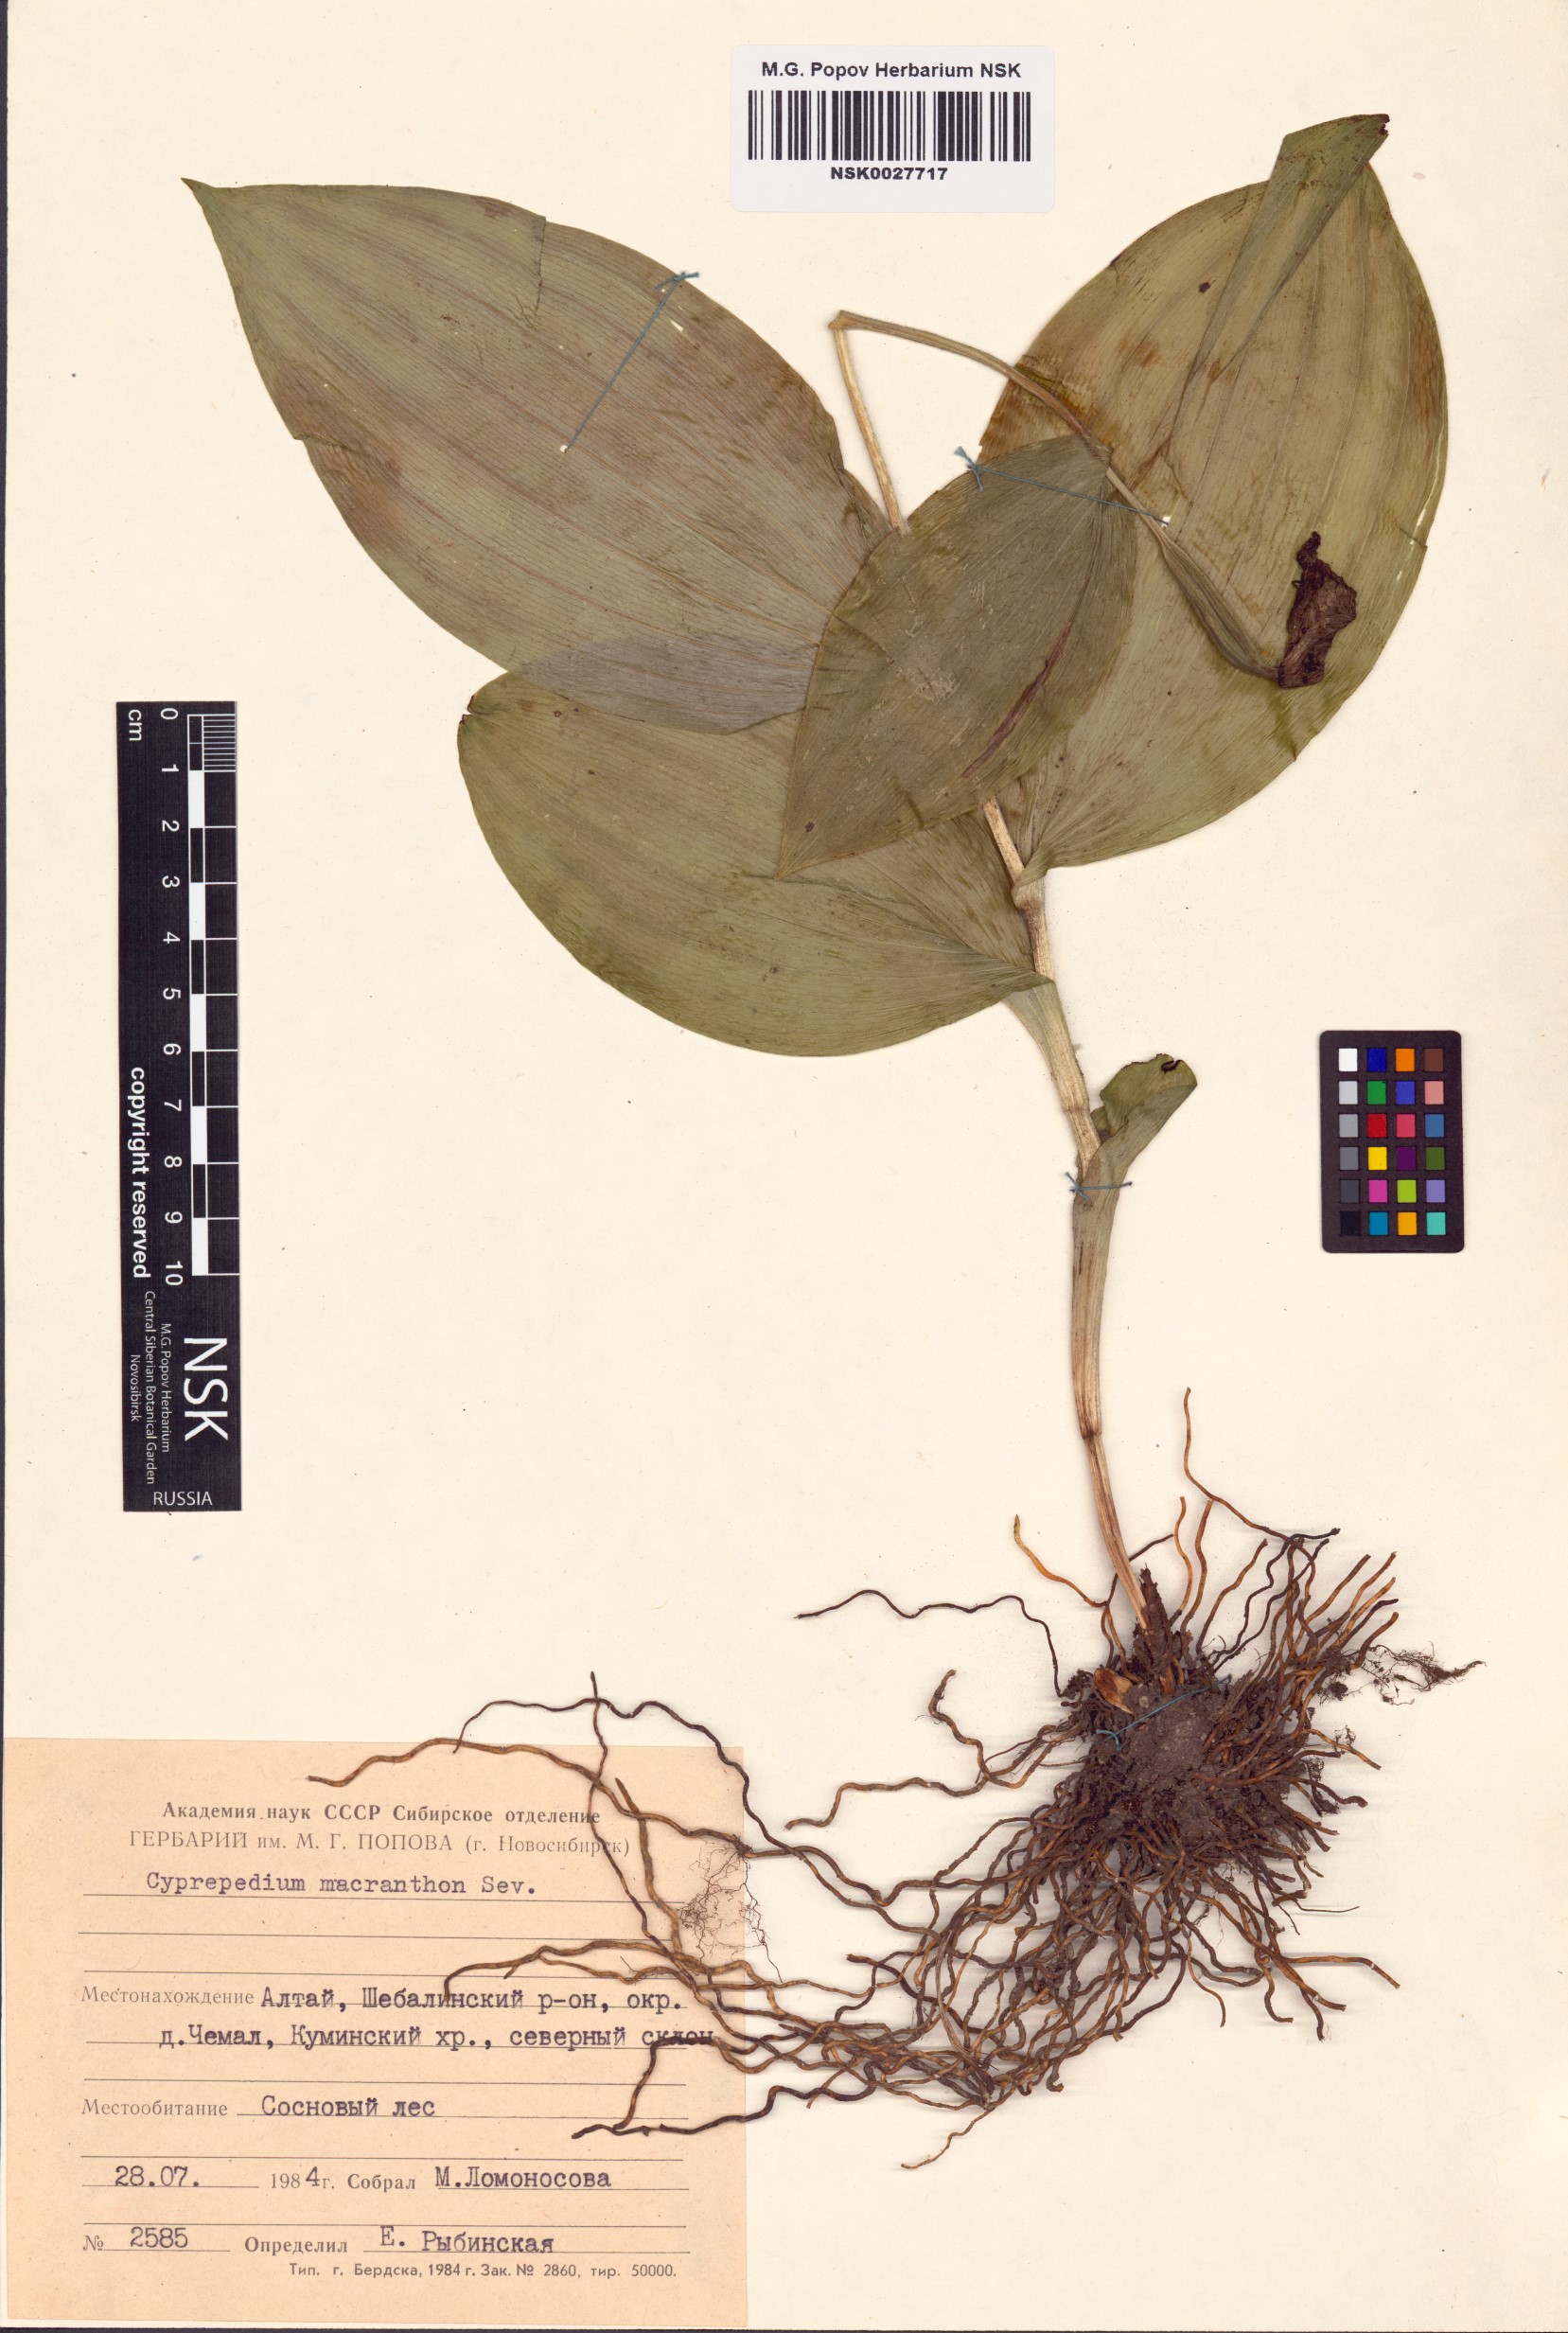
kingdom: Plantae
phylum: Tracheophyta
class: Liliopsida
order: Asparagales
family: Orchidaceae
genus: Cypripedium
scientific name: Cypripedium macranthos
